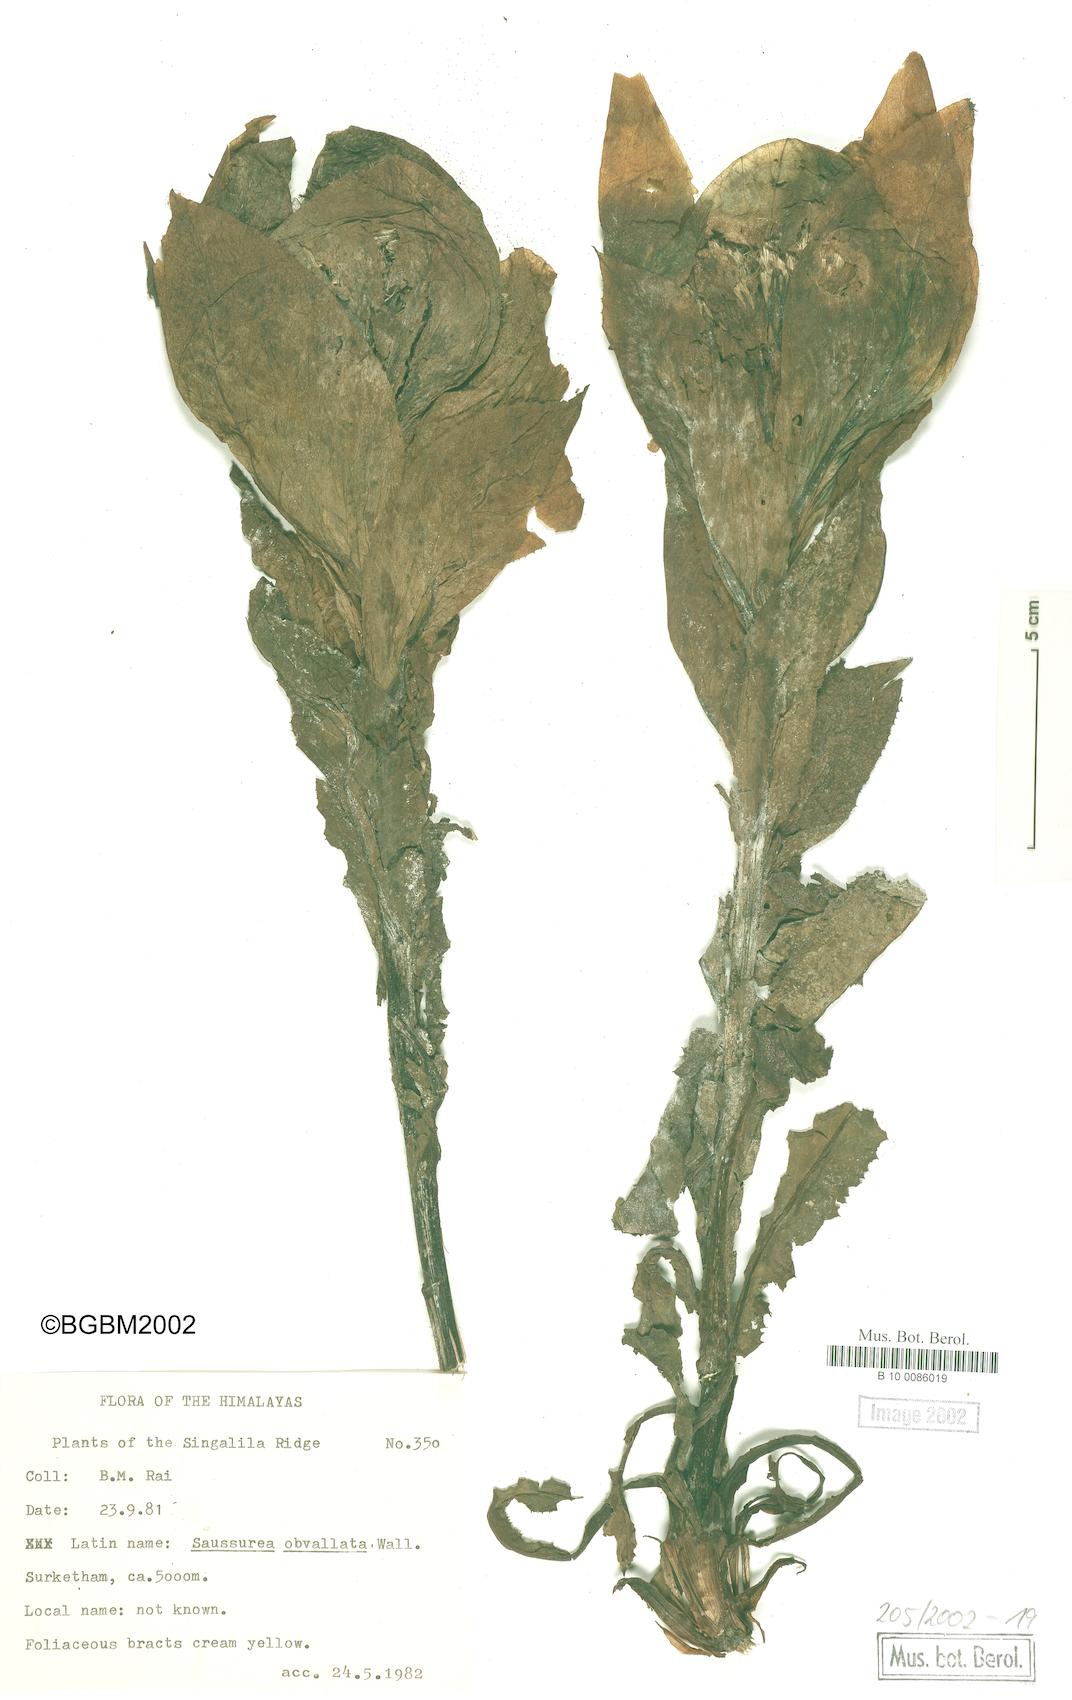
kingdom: Plantae
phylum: Tracheophyta
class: Magnoliopsida
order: Asterales
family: Asteraceae
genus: Saussurea
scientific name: Saussurea sikkimensis
